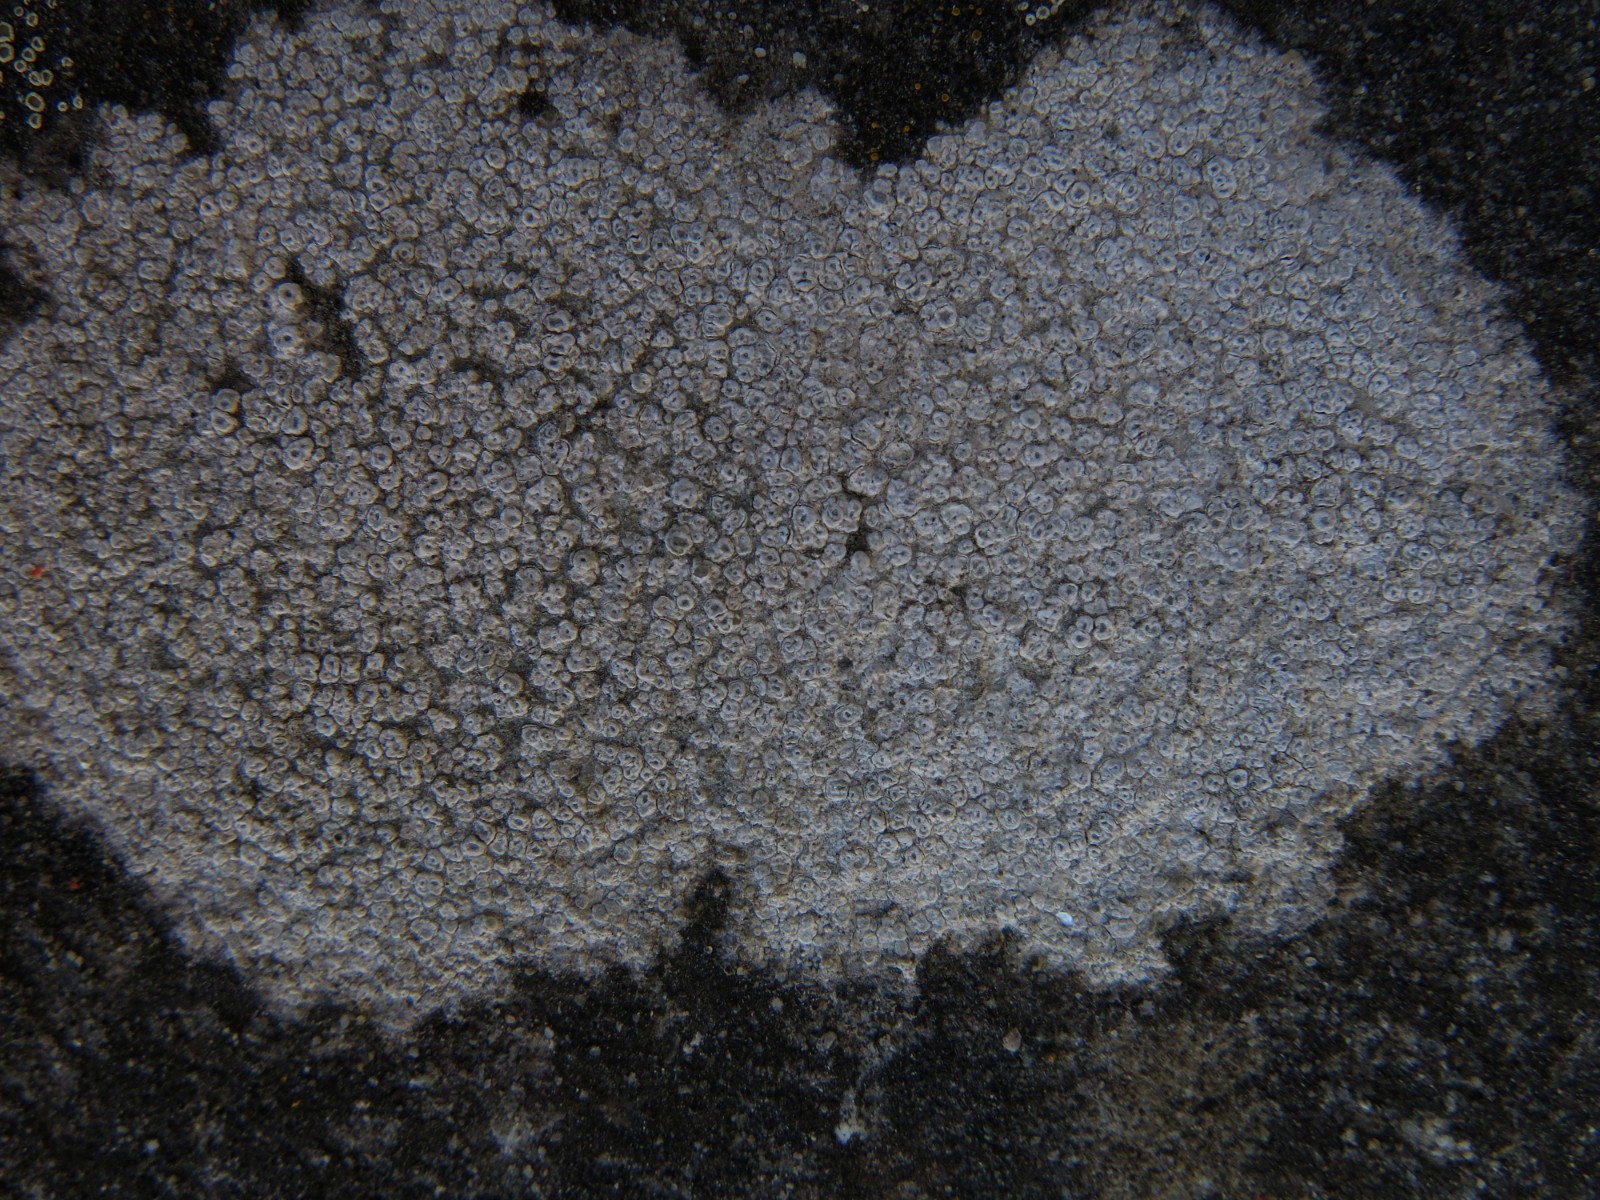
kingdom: Fungi
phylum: Ascomycota
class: Lecanoromycetes
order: Pertusariales
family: Megasporaceae
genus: Circinaria
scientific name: Circinaria hoffmanniana
